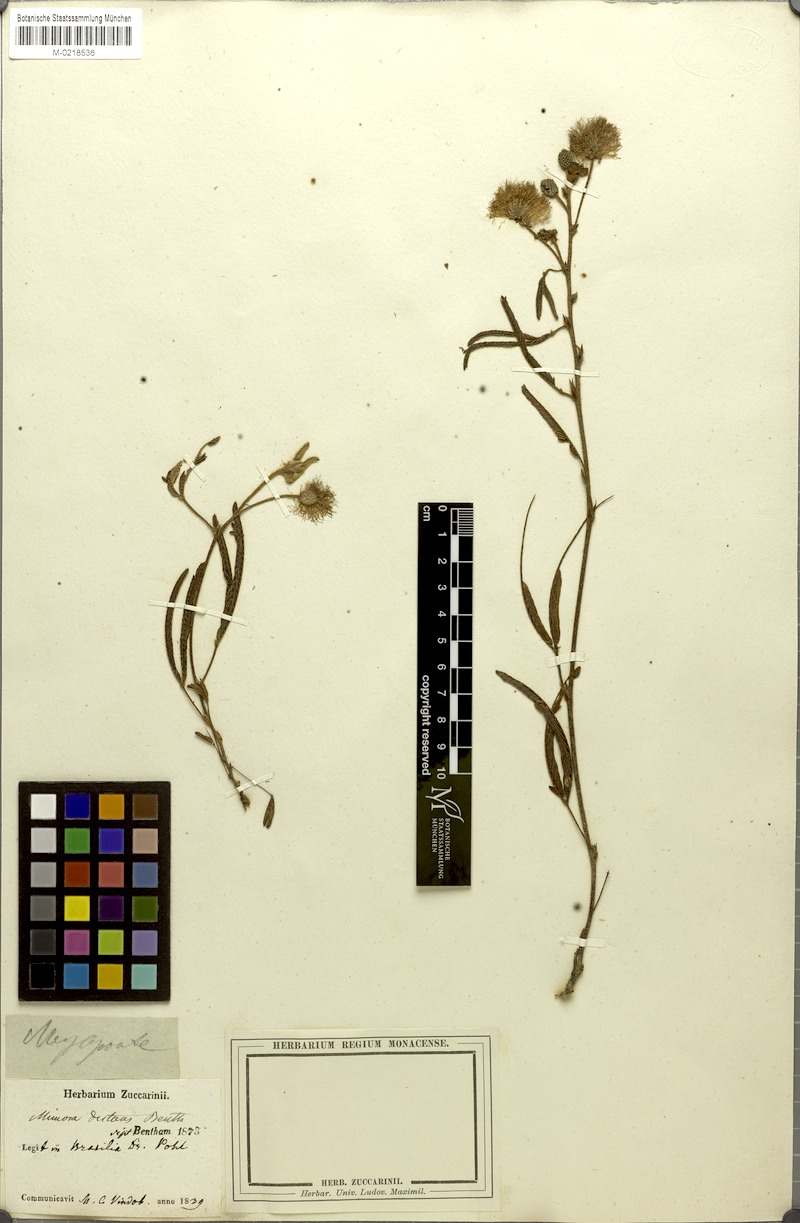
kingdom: Plantae
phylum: Tracheophyta
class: Magnoliopsida
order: Fabales
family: Fabaceae
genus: Mimosa
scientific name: Mimosa distans
